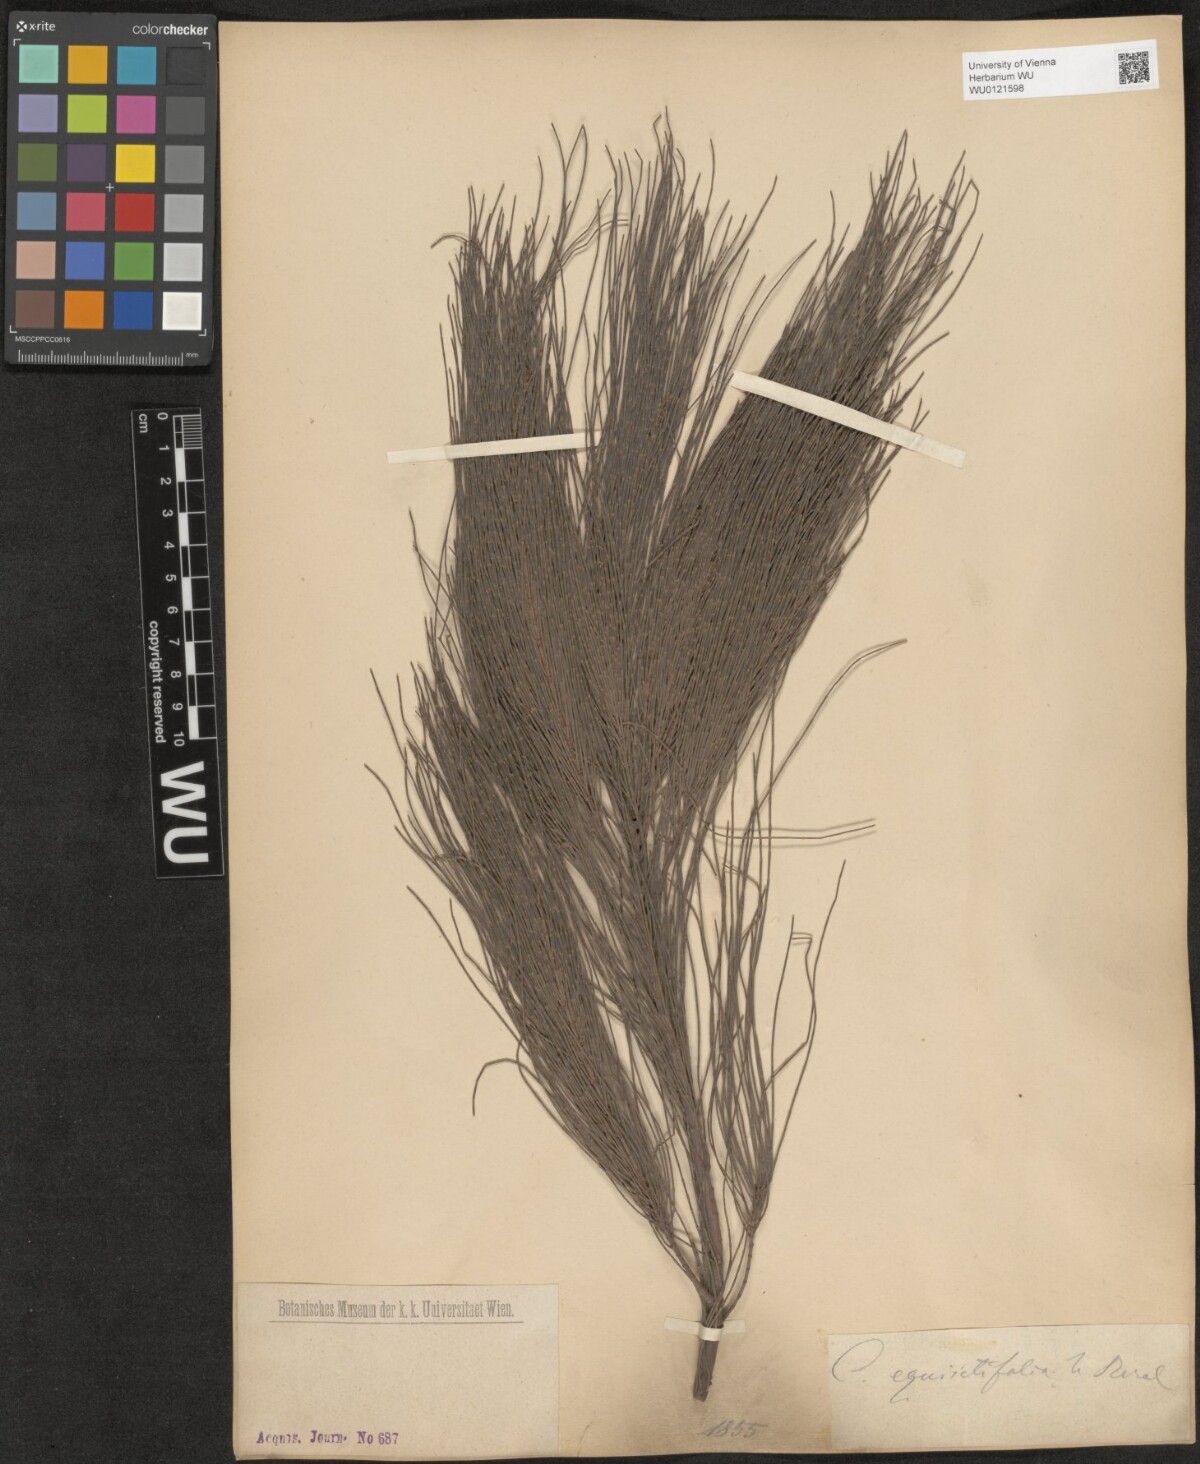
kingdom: Plantae
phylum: Tracheophyta
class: Magnoliopsida
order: Fagales
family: Casuarinaceae
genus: Casuarina
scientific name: Casuarina equisetifolia
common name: Beach sheoak
